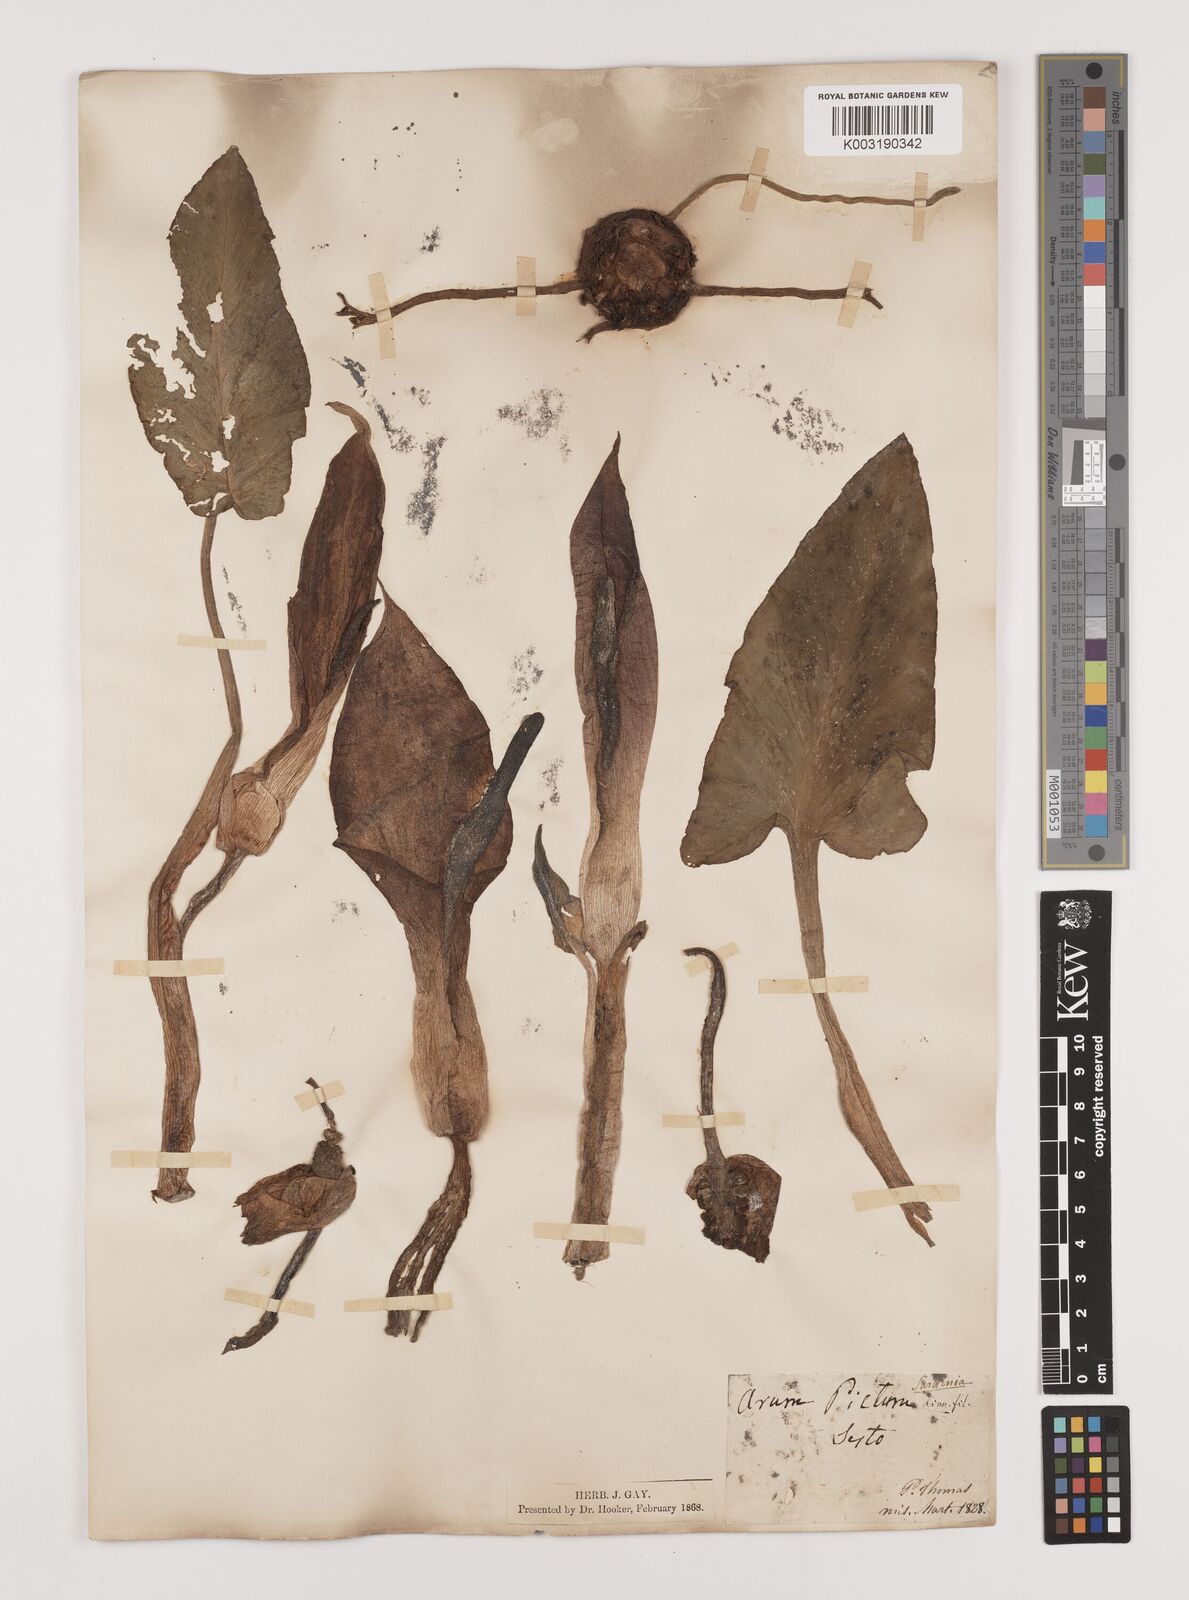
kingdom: Plantae
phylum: Tracheophyta
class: Liliopsida
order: Alismatales
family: Araceae
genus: Arum
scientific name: Arum pictum
